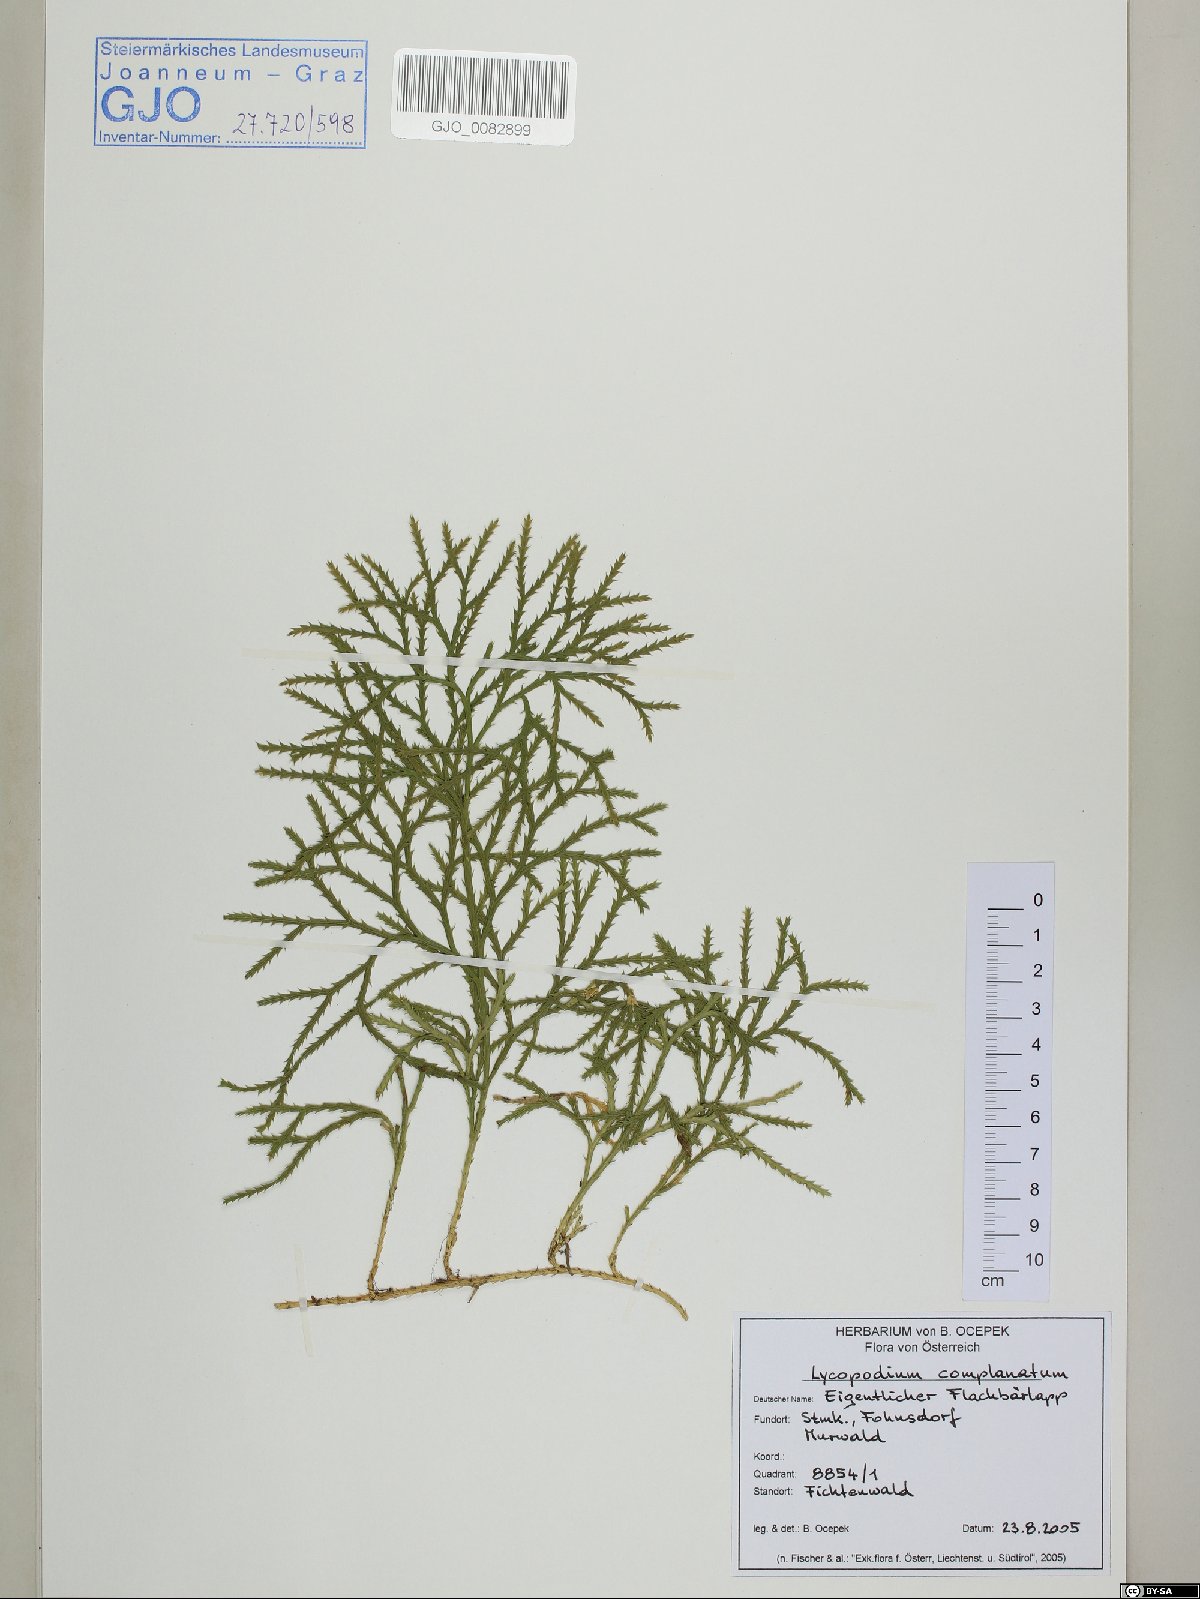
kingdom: Plantae
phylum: Tracheophyta
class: Lycopodiopsida
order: Lycopodiales
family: Lycopodiaceae
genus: Diphasiastrum
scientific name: Diphasiastrum complanatum
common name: Northern running-pine
